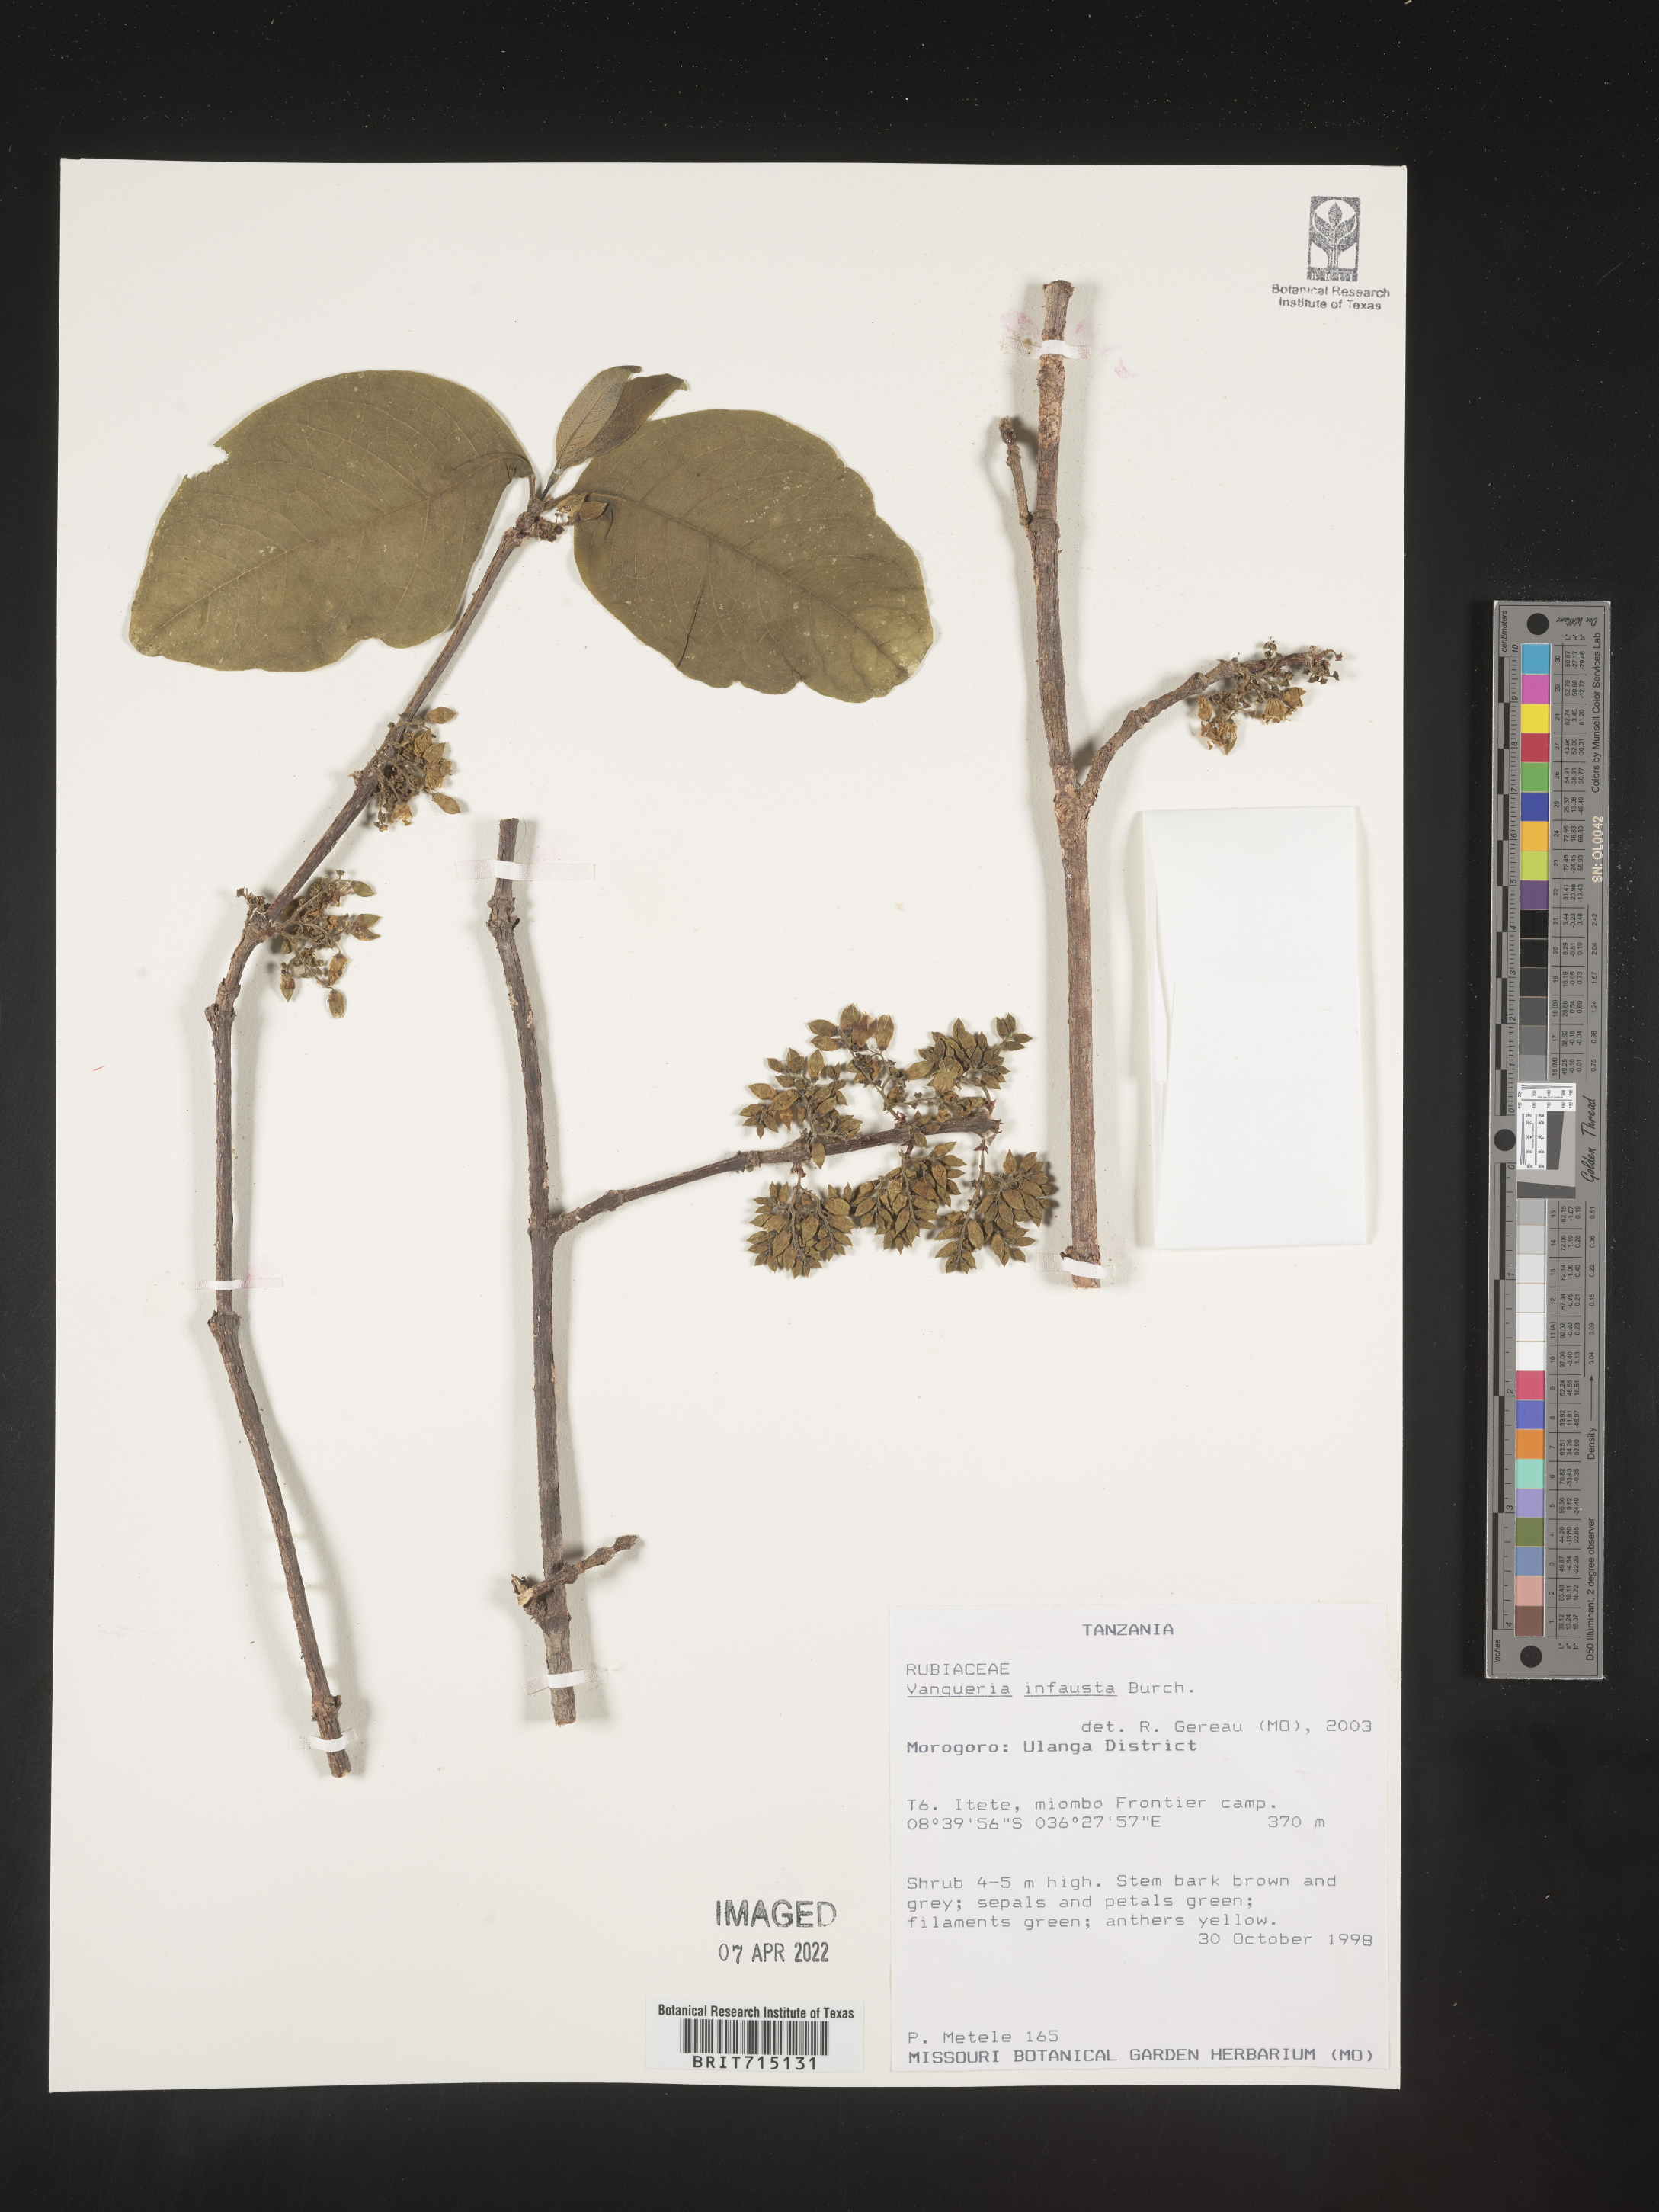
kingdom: Plantae
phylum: Tracheophyta
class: Magnoliopsida
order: Gentianales
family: Rubiaceae
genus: Vangueria
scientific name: Vangueria
